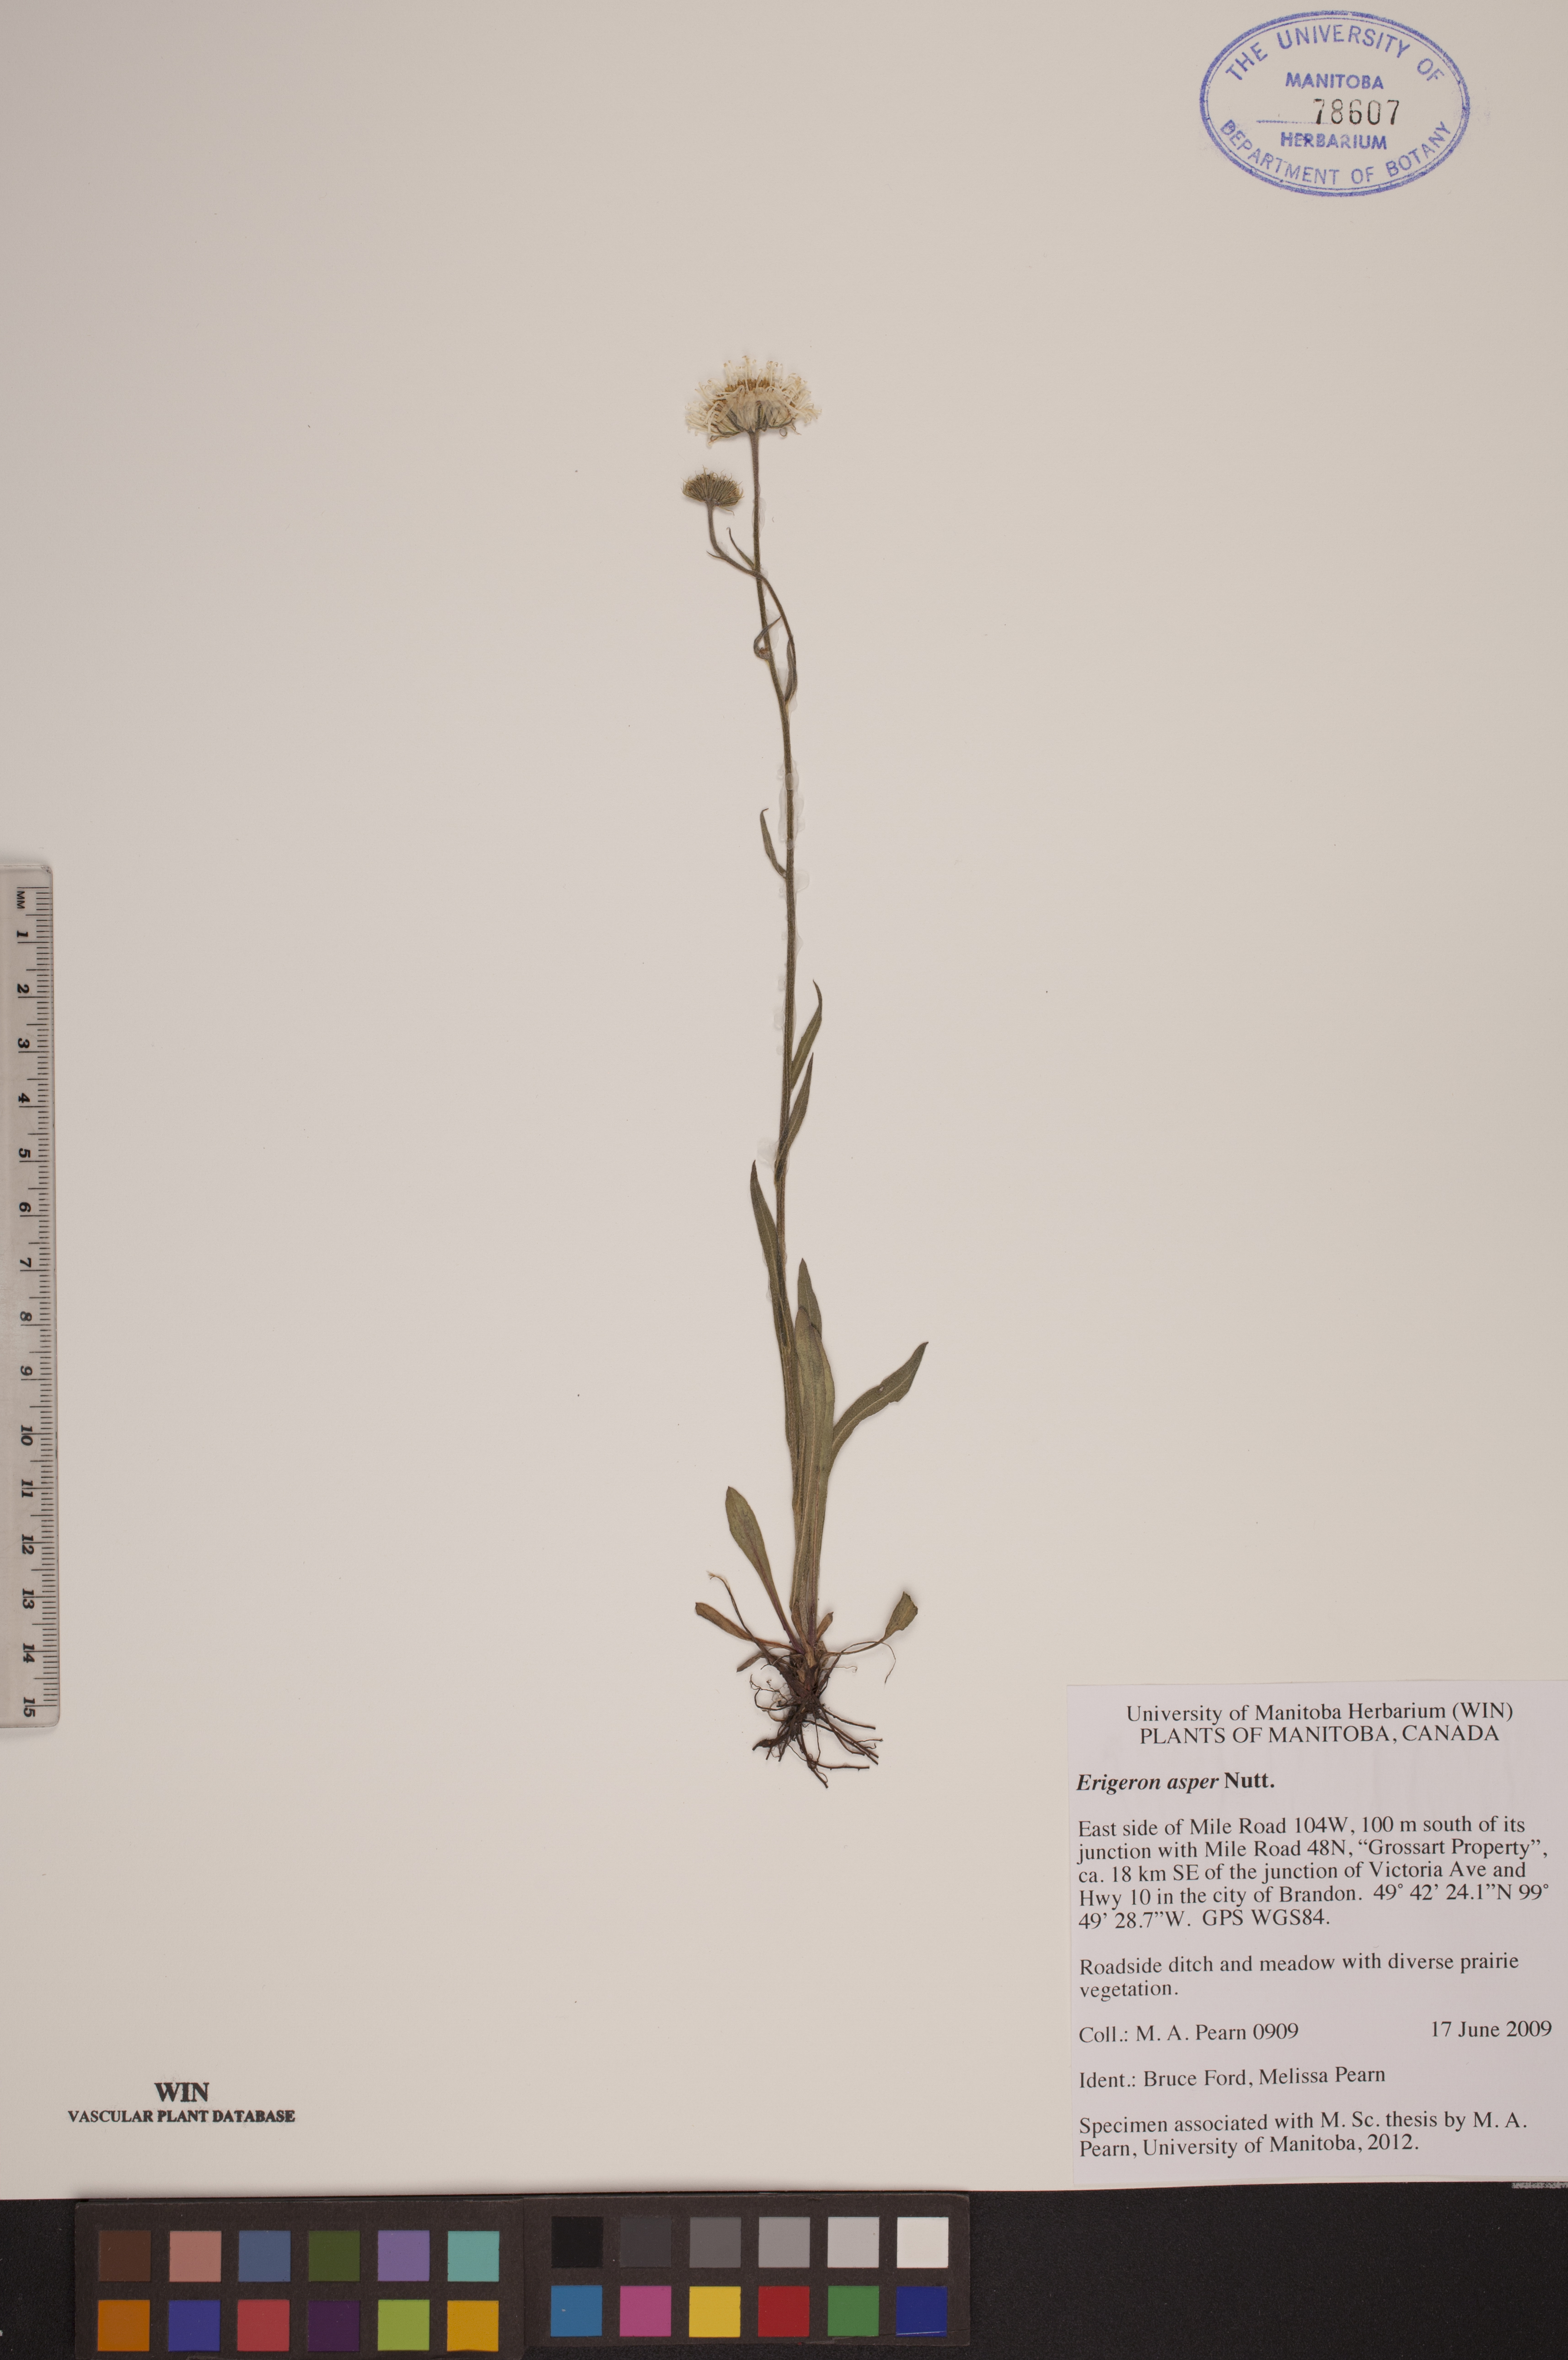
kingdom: Plantae
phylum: Tracheophyta
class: Magnoliopsida
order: Asterales
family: Asteraceae
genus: Erigeron
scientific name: Erigeron glabellus
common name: Smooth fleabane
